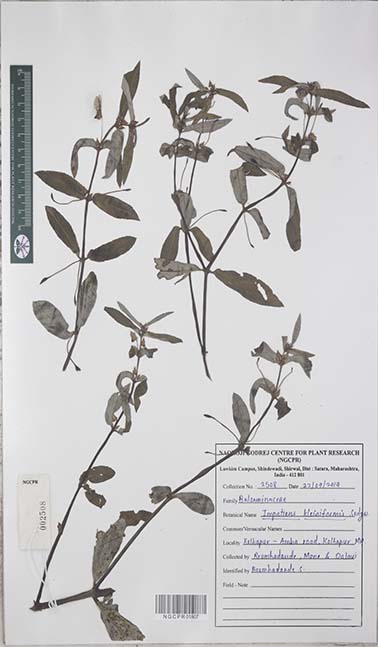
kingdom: Plantae
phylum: Tracheophyta
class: Magnoliopsida
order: Ericales
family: Balsaminaceae
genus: Impatiens
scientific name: Impatiens kleiniformis
